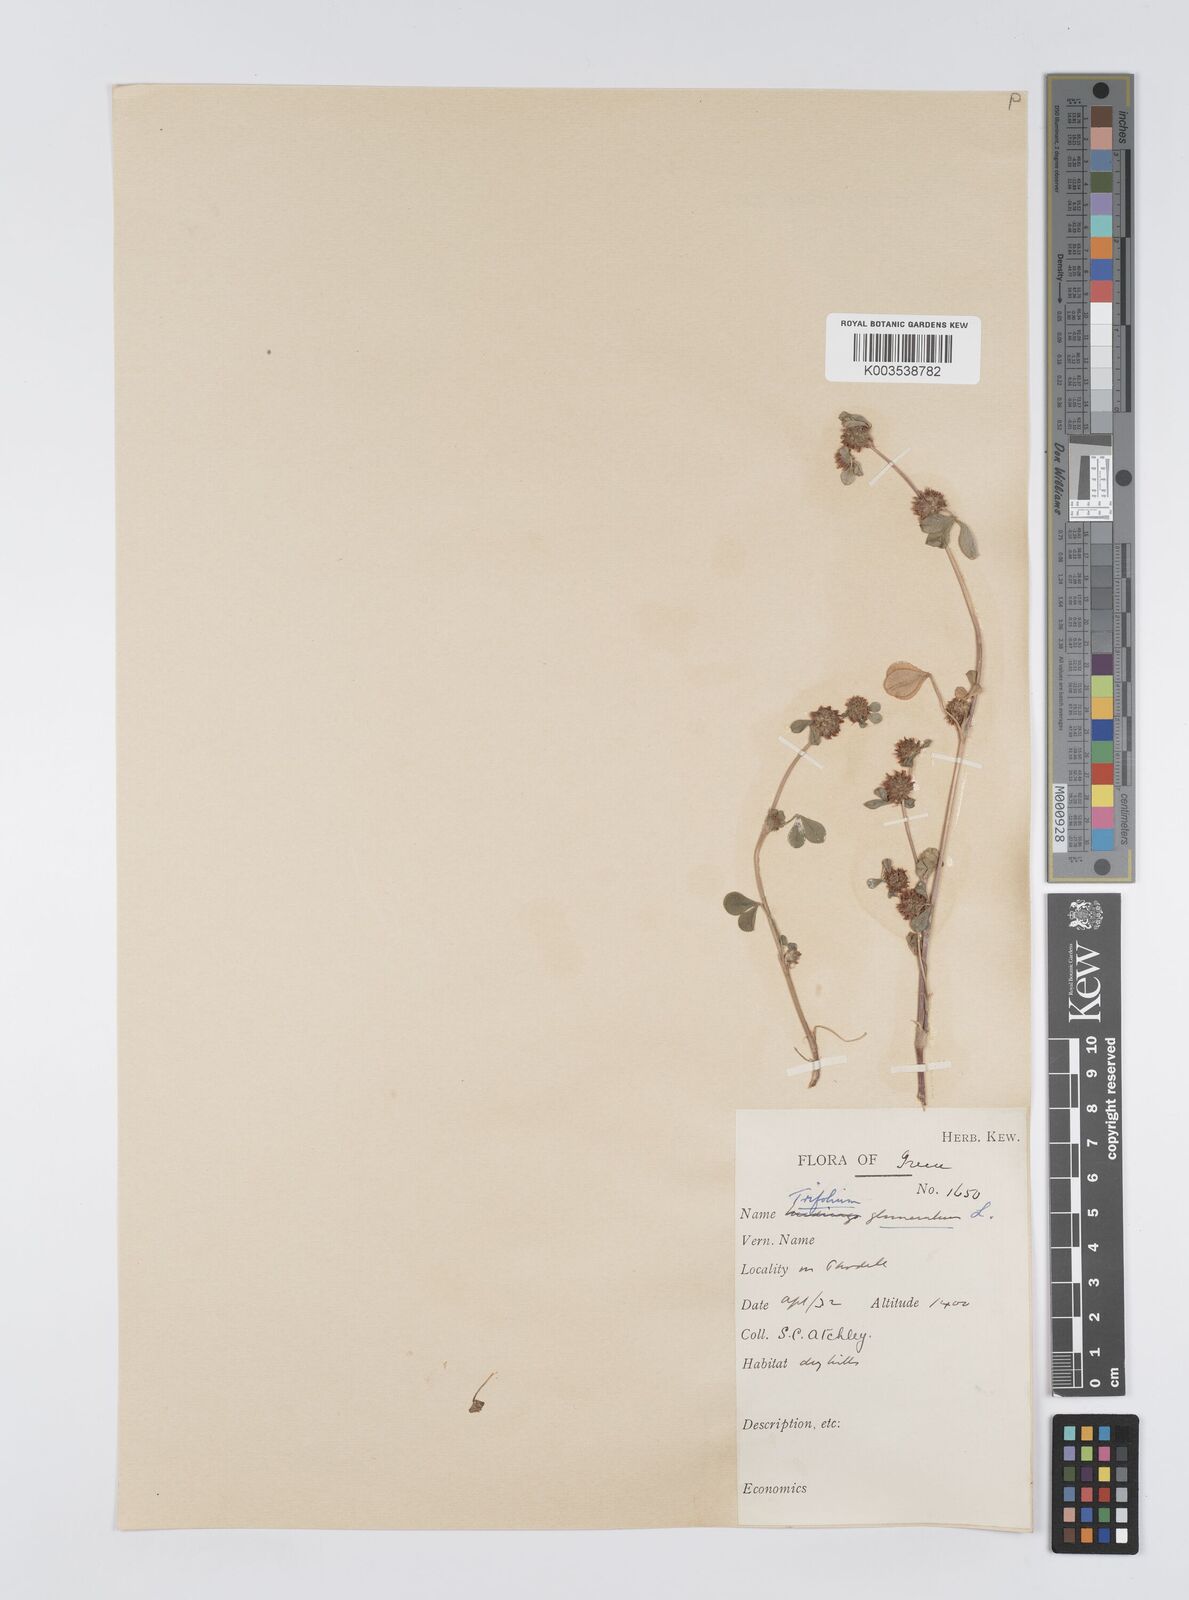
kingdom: Plantae
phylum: Tracheophyta
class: Magnoliopsida
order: Fabales
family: Fabaceae
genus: Trifolium
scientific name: Trifolium glomeratum
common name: Clustered clover
